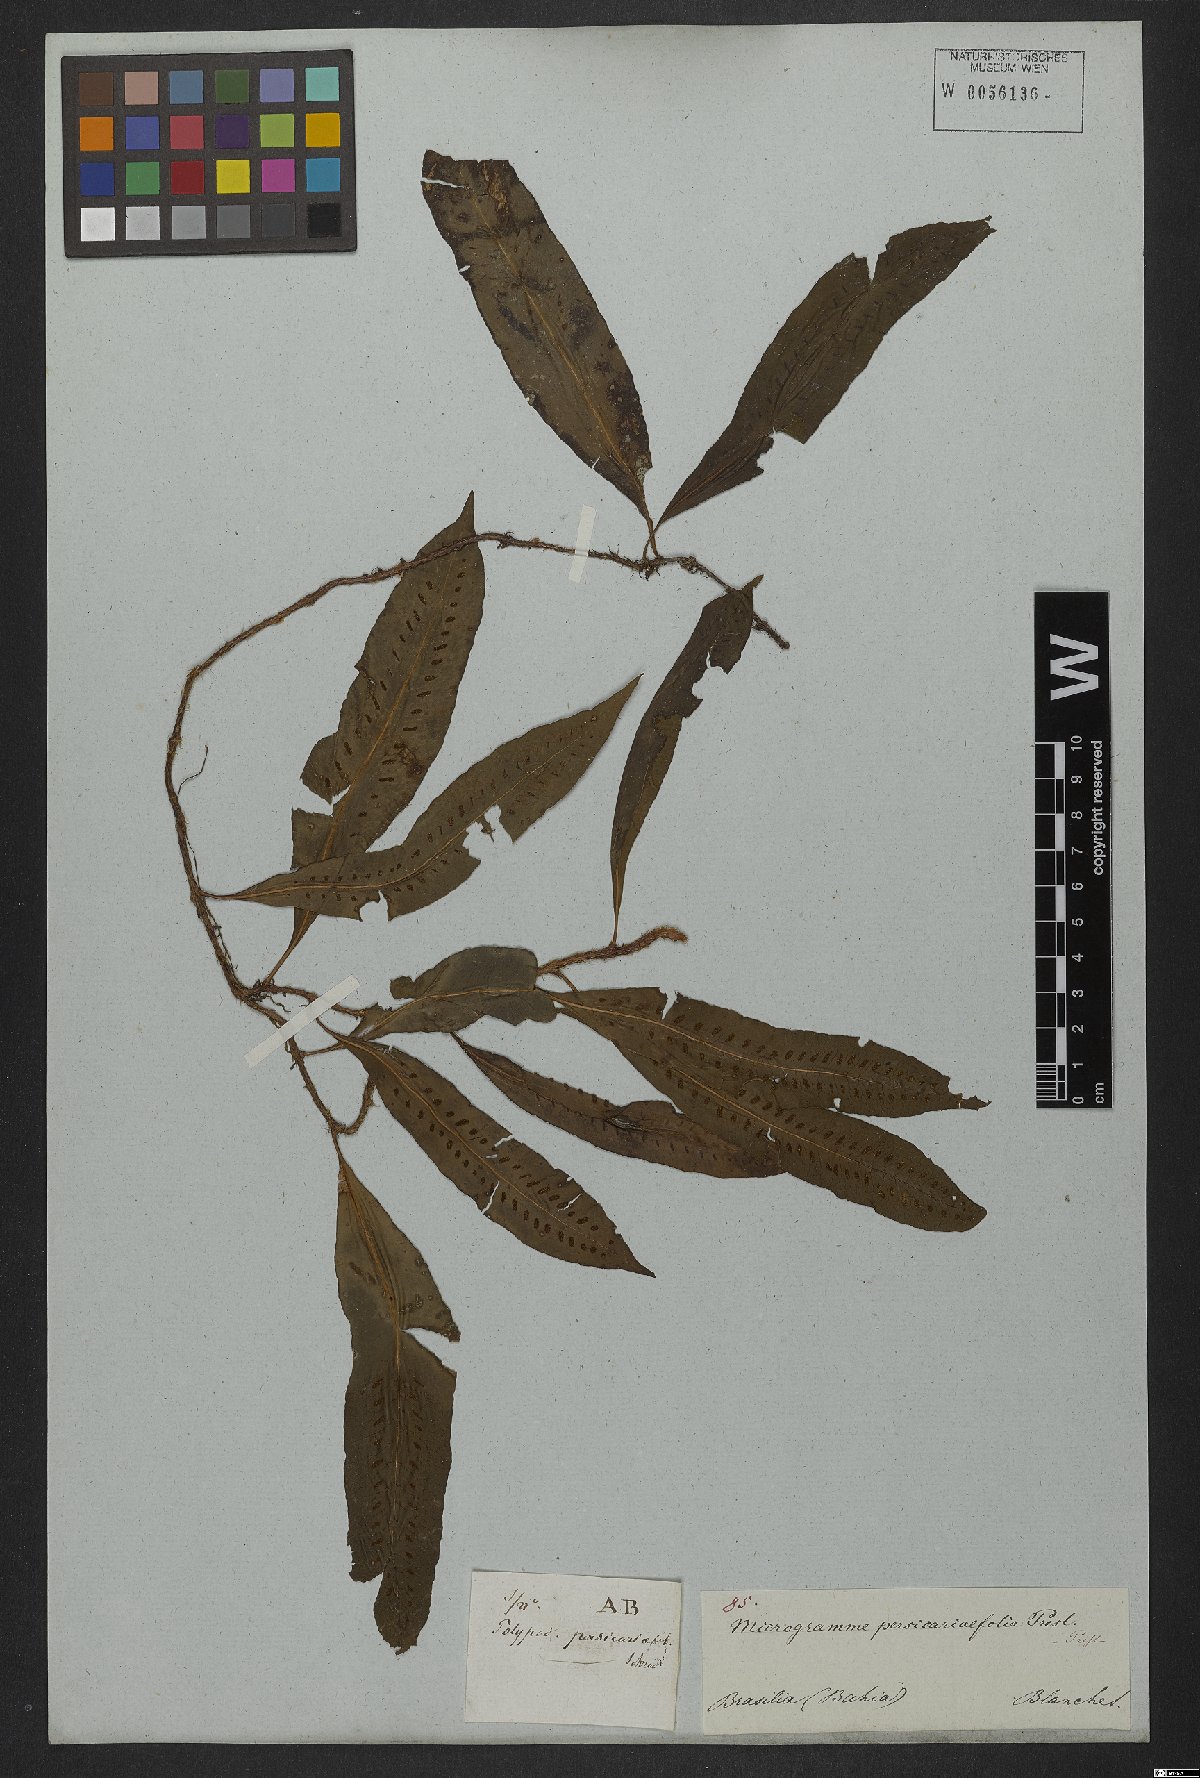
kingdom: Plantae
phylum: Tracheophyta
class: Polypodiopsida
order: Polypodiales
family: Polypodiaceae
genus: Microgramma
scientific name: Microgramma persicariifolia
